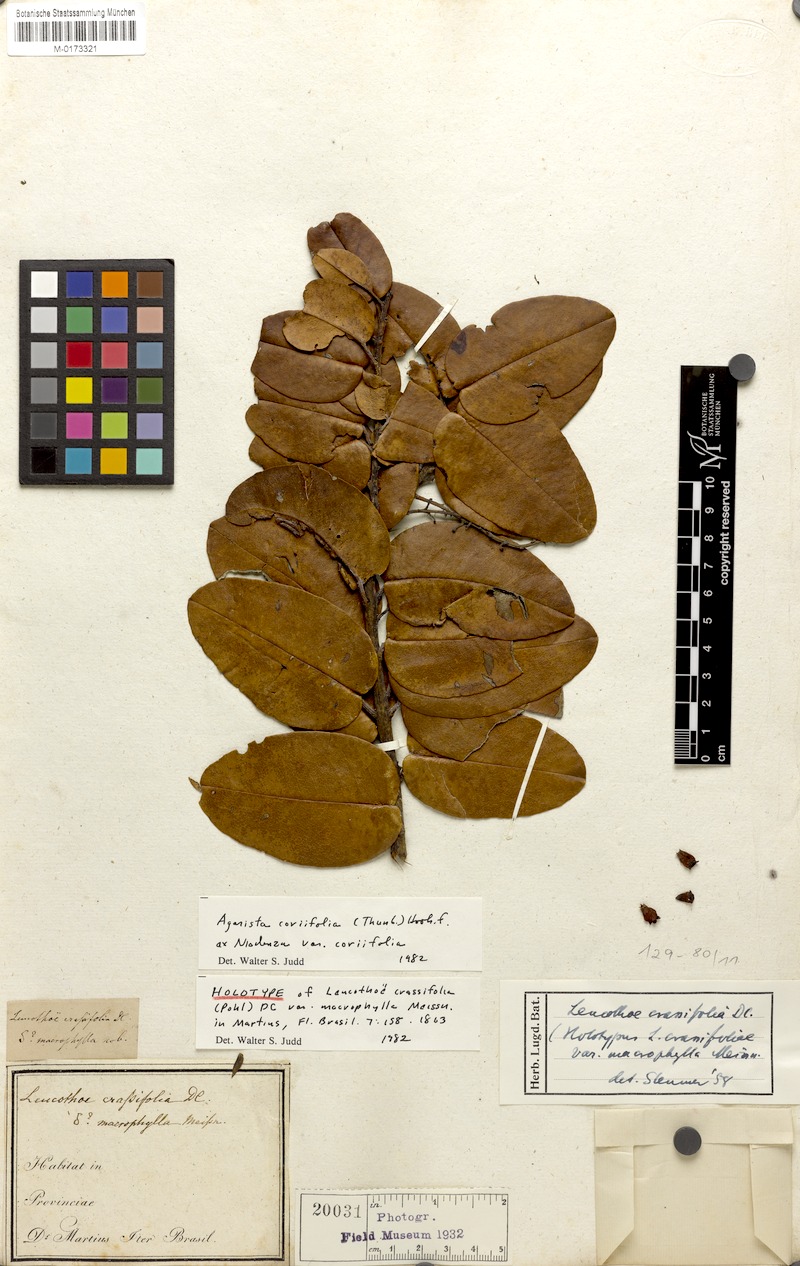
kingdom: Plantae
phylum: Tracheophyta
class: Magnoliopsida
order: Ericales
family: Ericaceae
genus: Agarista
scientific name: Agarista coriifolia
